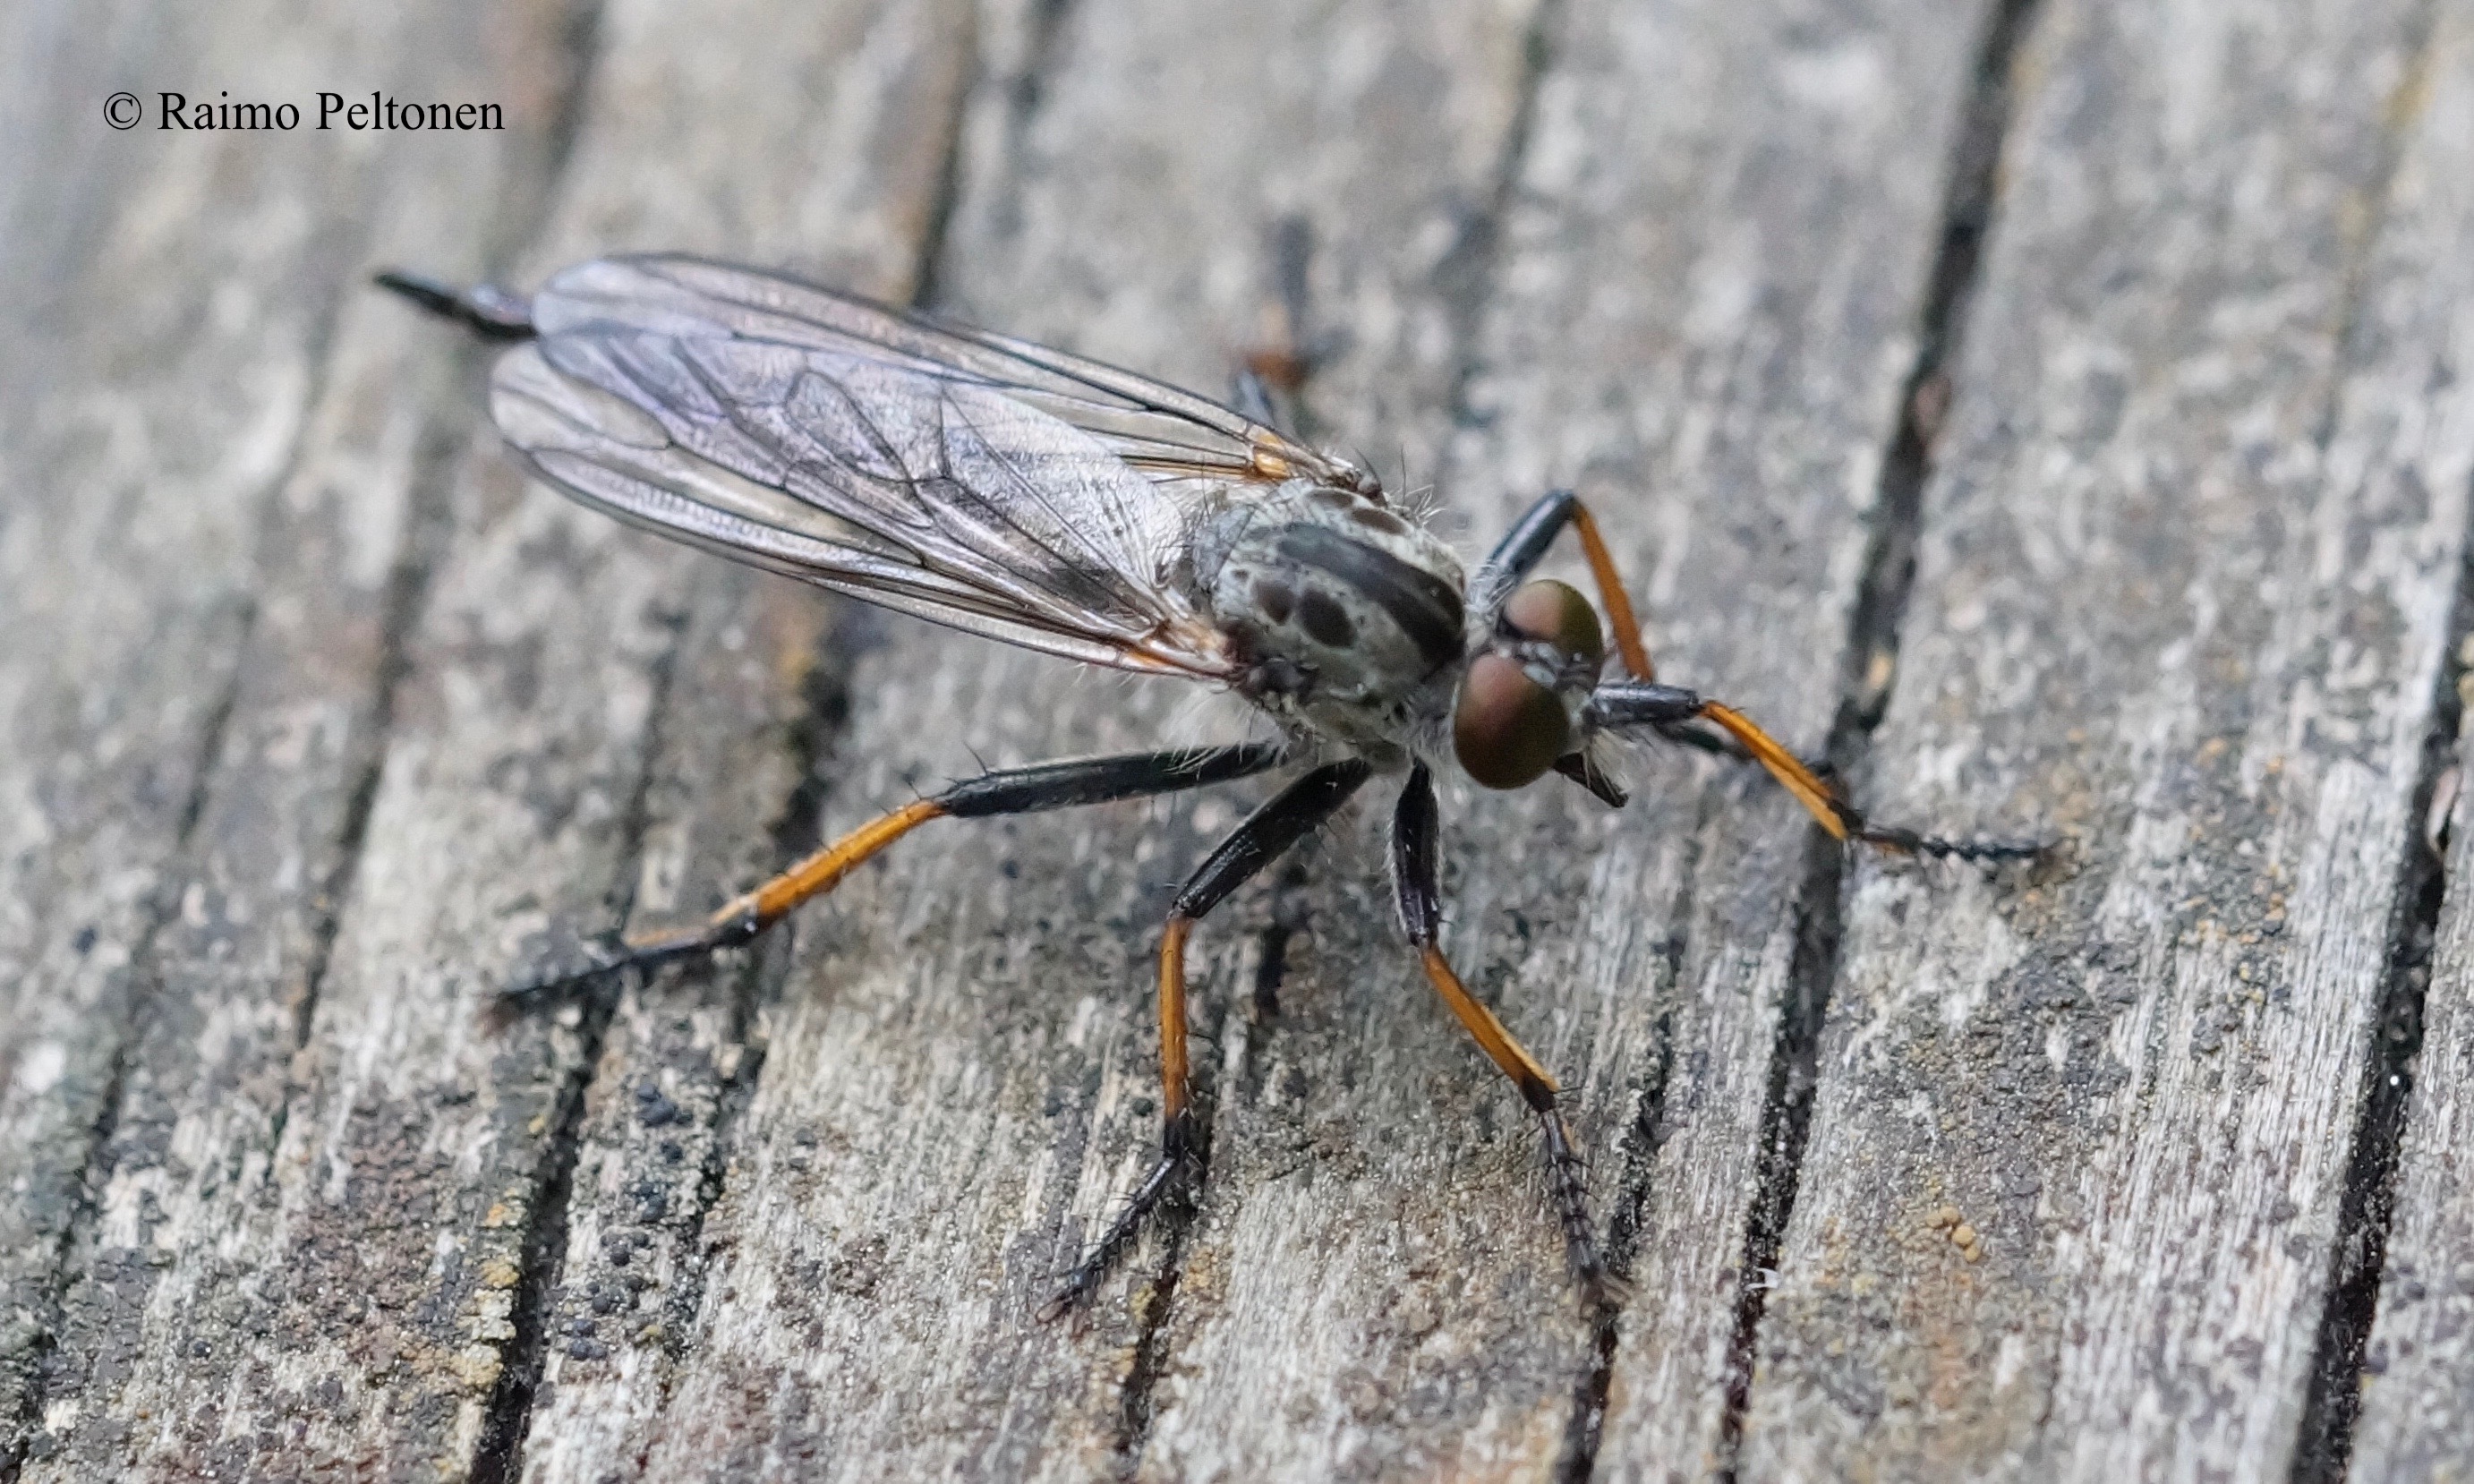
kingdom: Animalia
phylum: Arthropoda
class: Insecta
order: Diptera
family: Asilidae
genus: Neoitamus
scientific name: Neoitamus cyanurus
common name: Common awl robberfly
